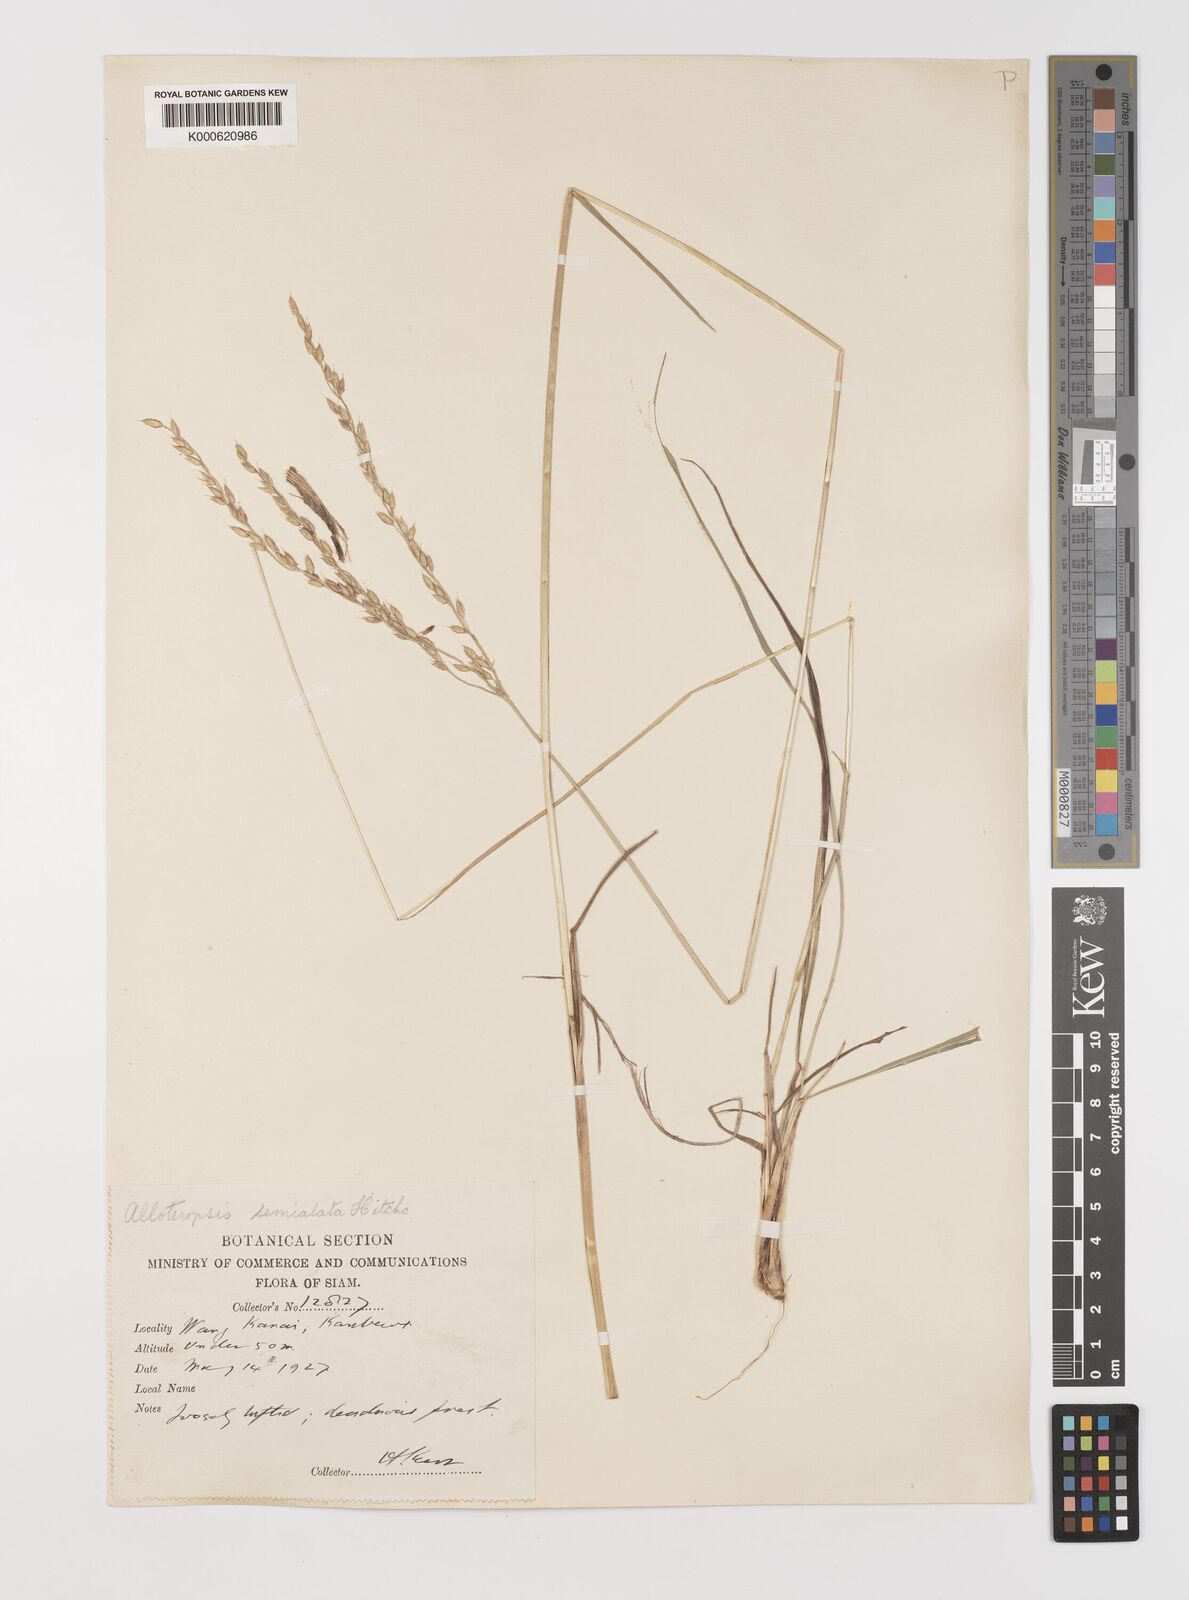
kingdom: Plantae
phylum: Tracheophyta
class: Liliopsida
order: Poales
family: Poaceae
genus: Alloteropsis
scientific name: Alloteropsis semialata
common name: Cockatoo grass
